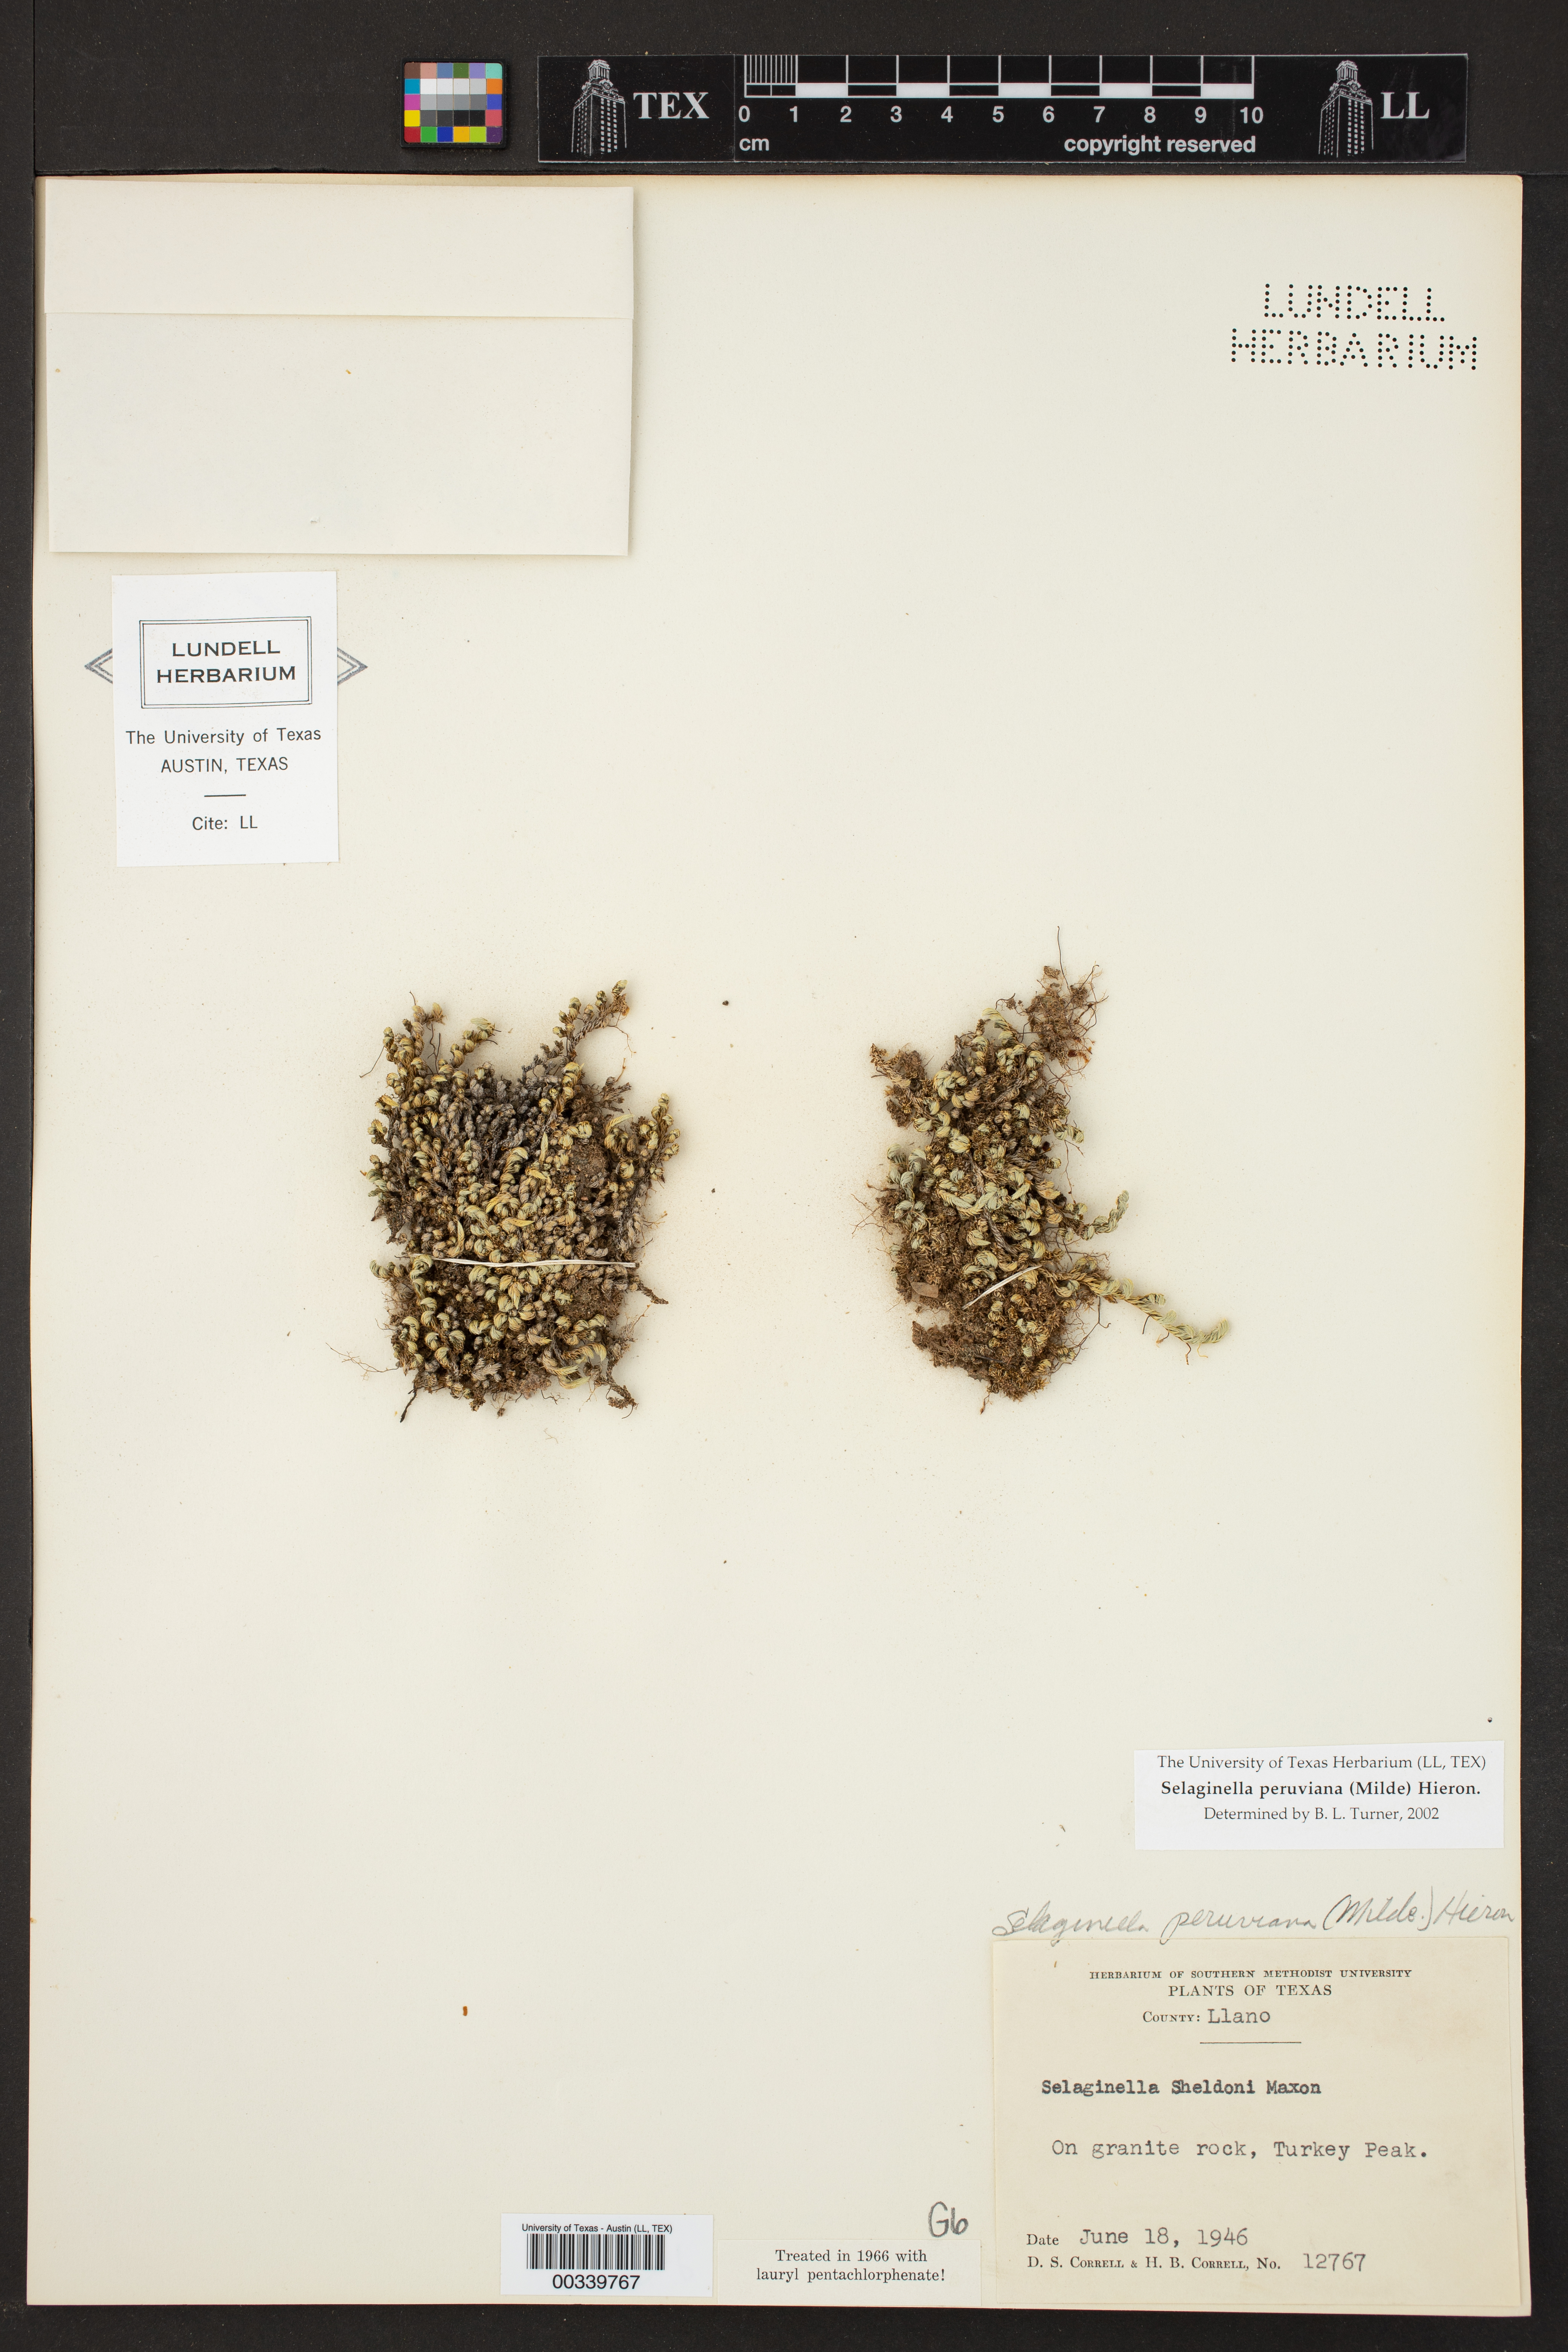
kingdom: Plantae
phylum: Tracheophyta
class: Lycopodiopsida
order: Selaginellales
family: Selaginellaceae
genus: Selaginella
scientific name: Selaginella peruviana
